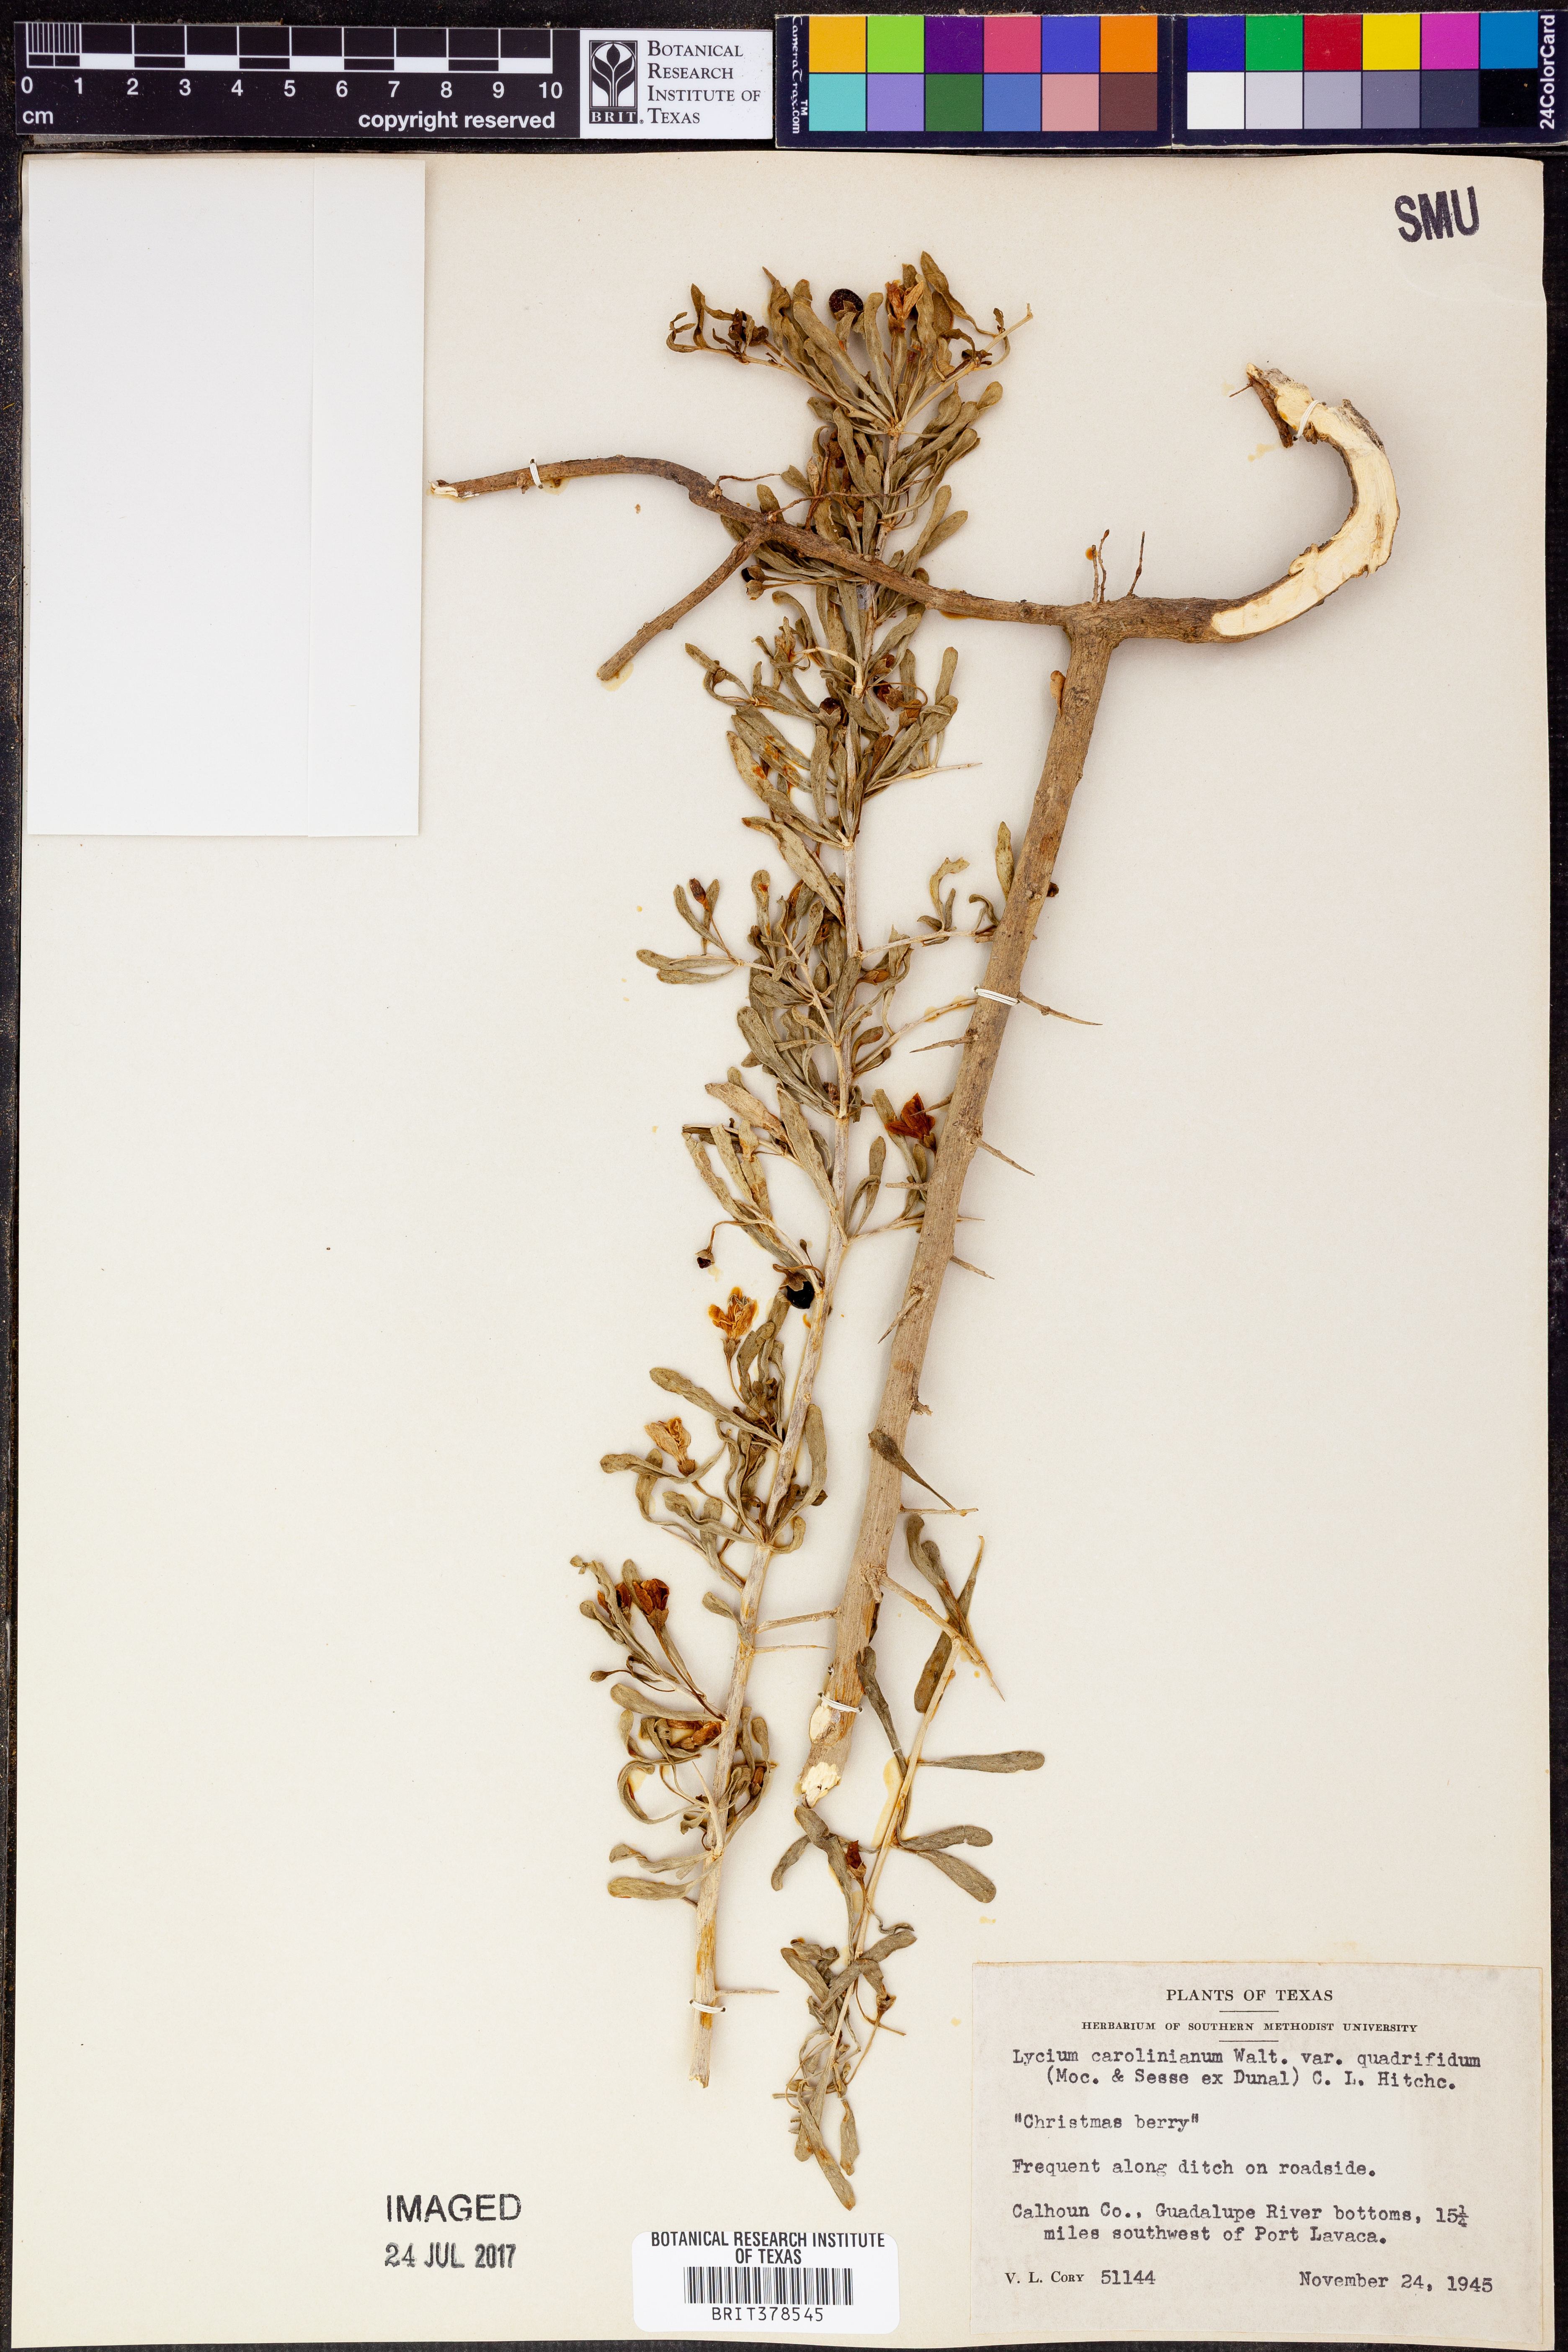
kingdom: Plantae
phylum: Tracheophyta
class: Magnoliopsida
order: Solanales
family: Solanaceae
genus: Lycium
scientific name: Lycium carolinianum
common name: Christmasberry
